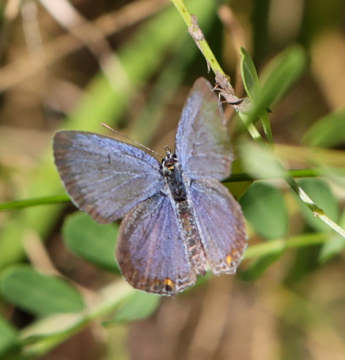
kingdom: Animalia
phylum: Arthropoda
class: Insecta
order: Lepidoptera
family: Lycaenidae
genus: Elkalyce
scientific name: Elkalyce comyntas
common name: Eastern Tailed-Blue
